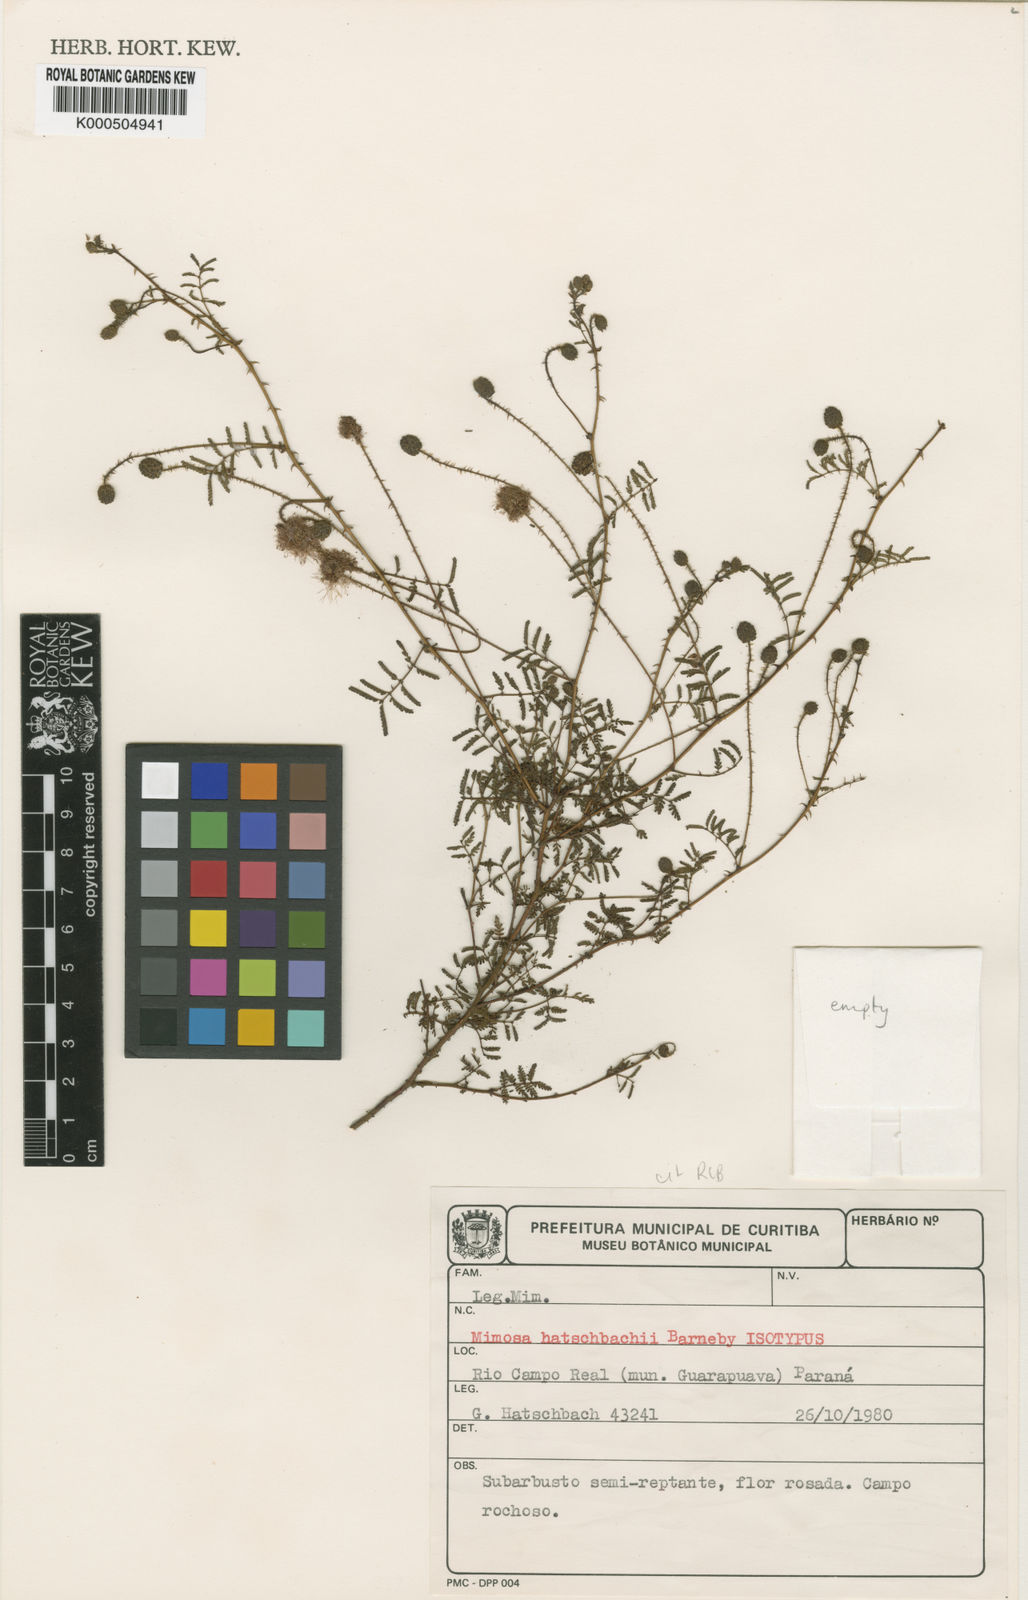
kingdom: Plantae
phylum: Tracheophyta
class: Magnoliopsida
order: Fabales
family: Fabaceae
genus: Mimosa
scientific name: Mimosa hatschbachii
